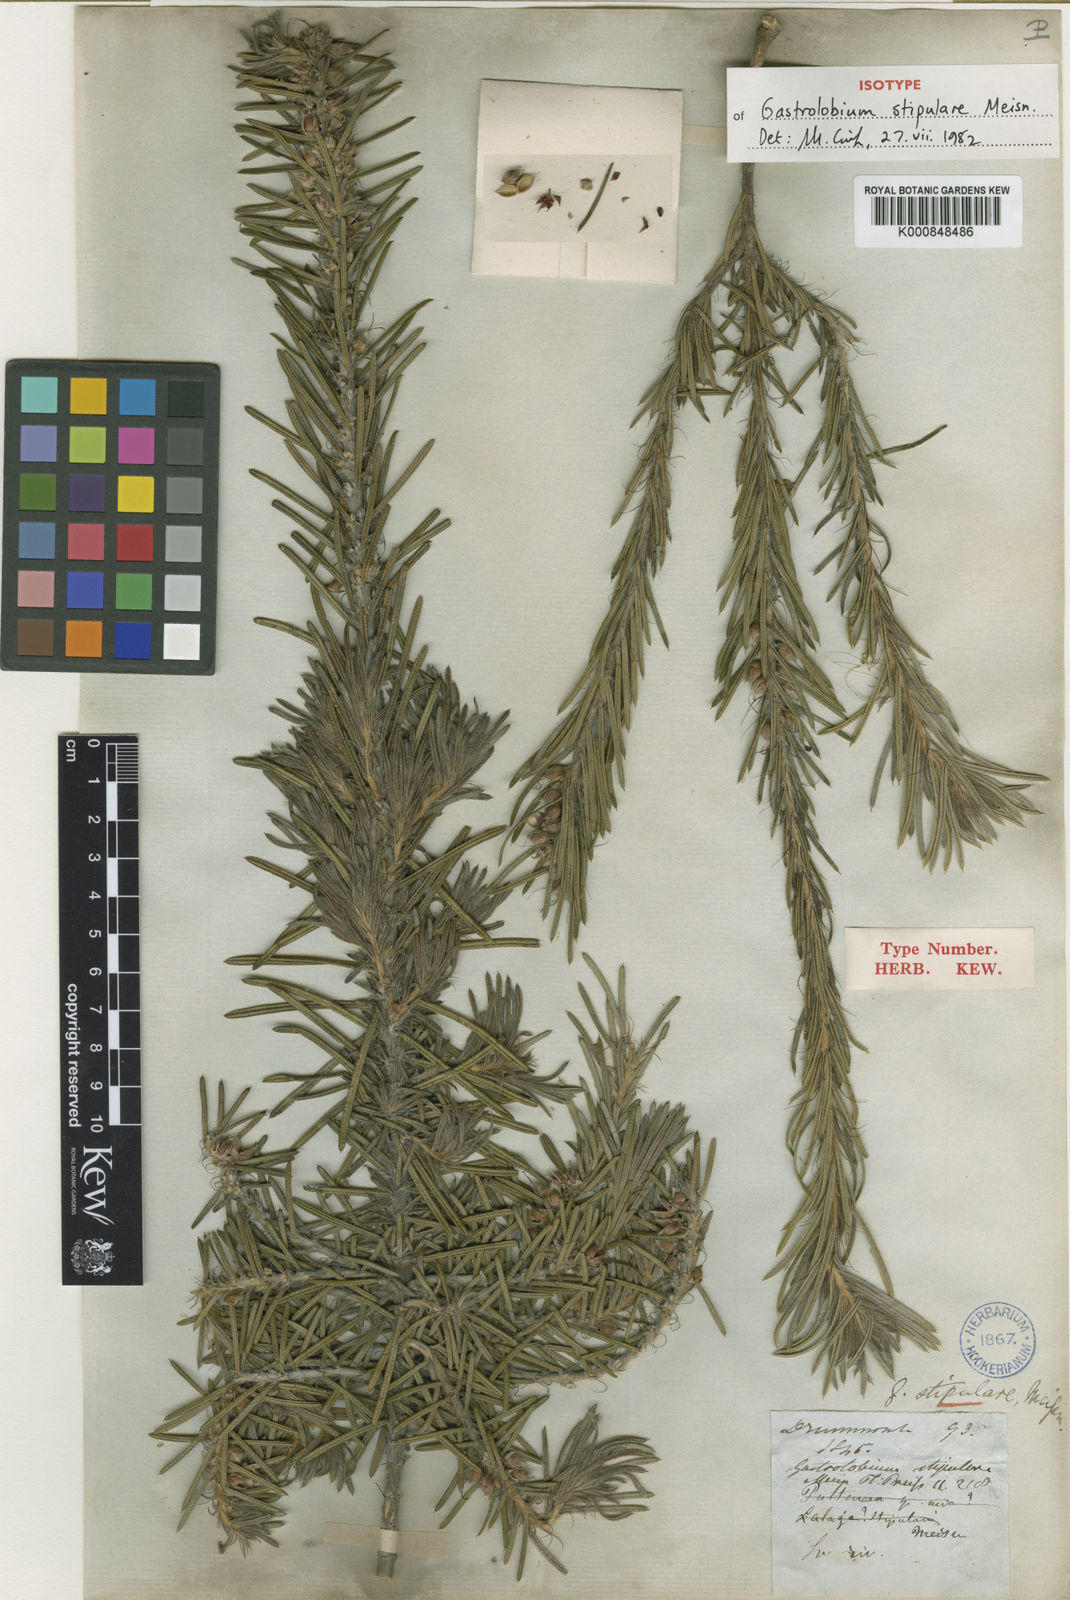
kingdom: Plantae
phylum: Tracheophyta
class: Magnoliopsida
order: Fabales
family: Fabaceae
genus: Gastrolobium
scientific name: Gastrolobium stipulare
